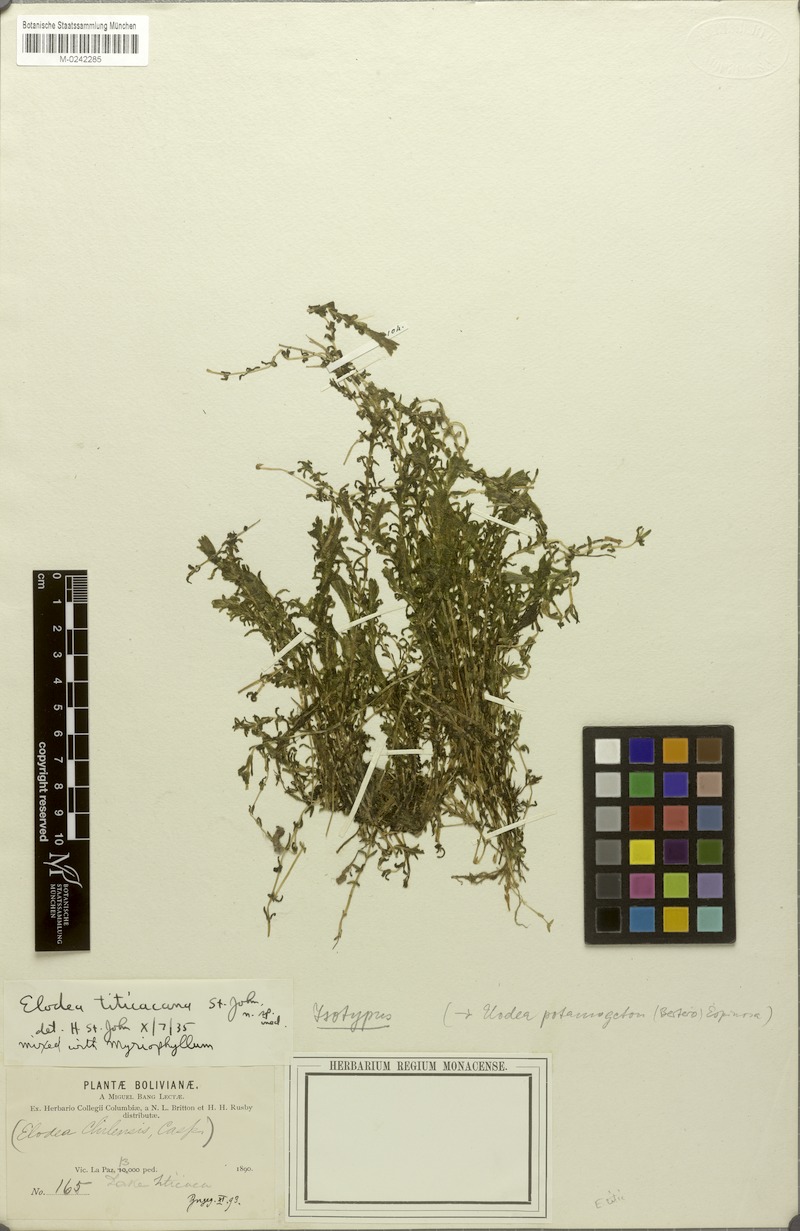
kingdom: Plantae
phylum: Tracheophyta
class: Liliopsida
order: Alismatales
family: Hydrocharitaceae
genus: Elodea
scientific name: Elodea potamogeton
